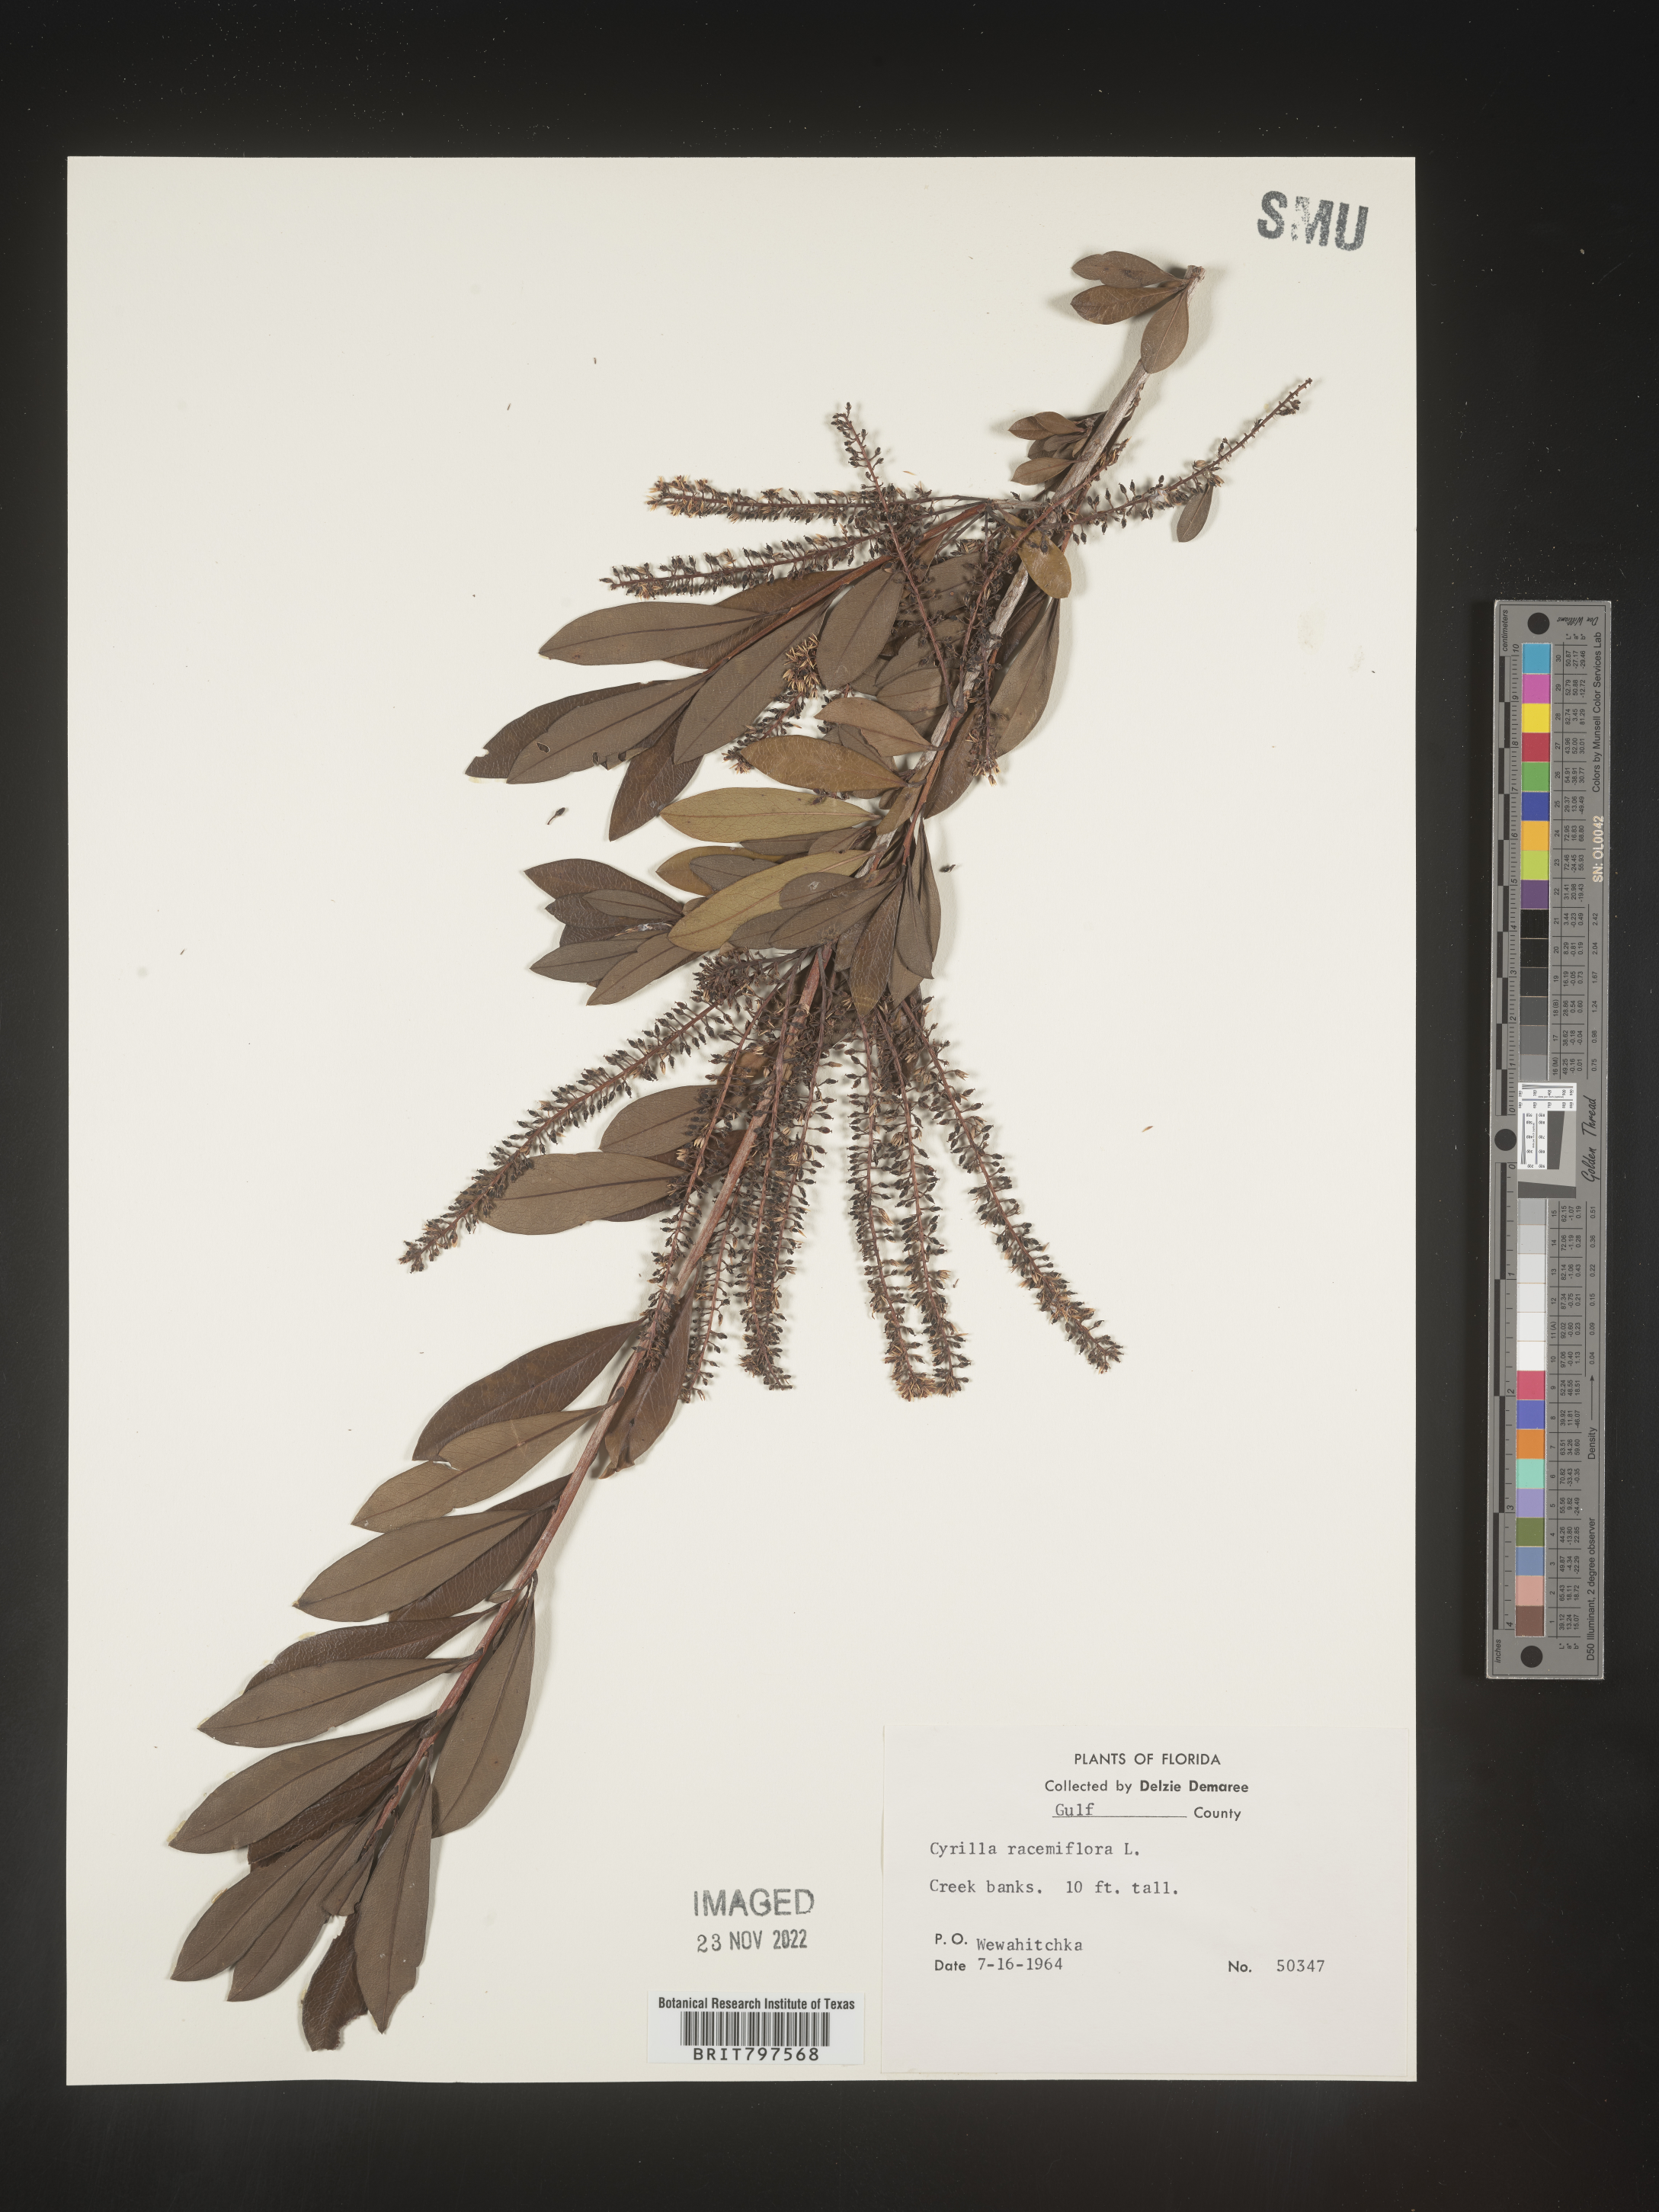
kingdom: Plantae
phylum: Tracheophyta
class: Magnoliopsida
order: Ericales
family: Cyrillaceae
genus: Cyrilla
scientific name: Cyrilla racemiflora
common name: Black titi
